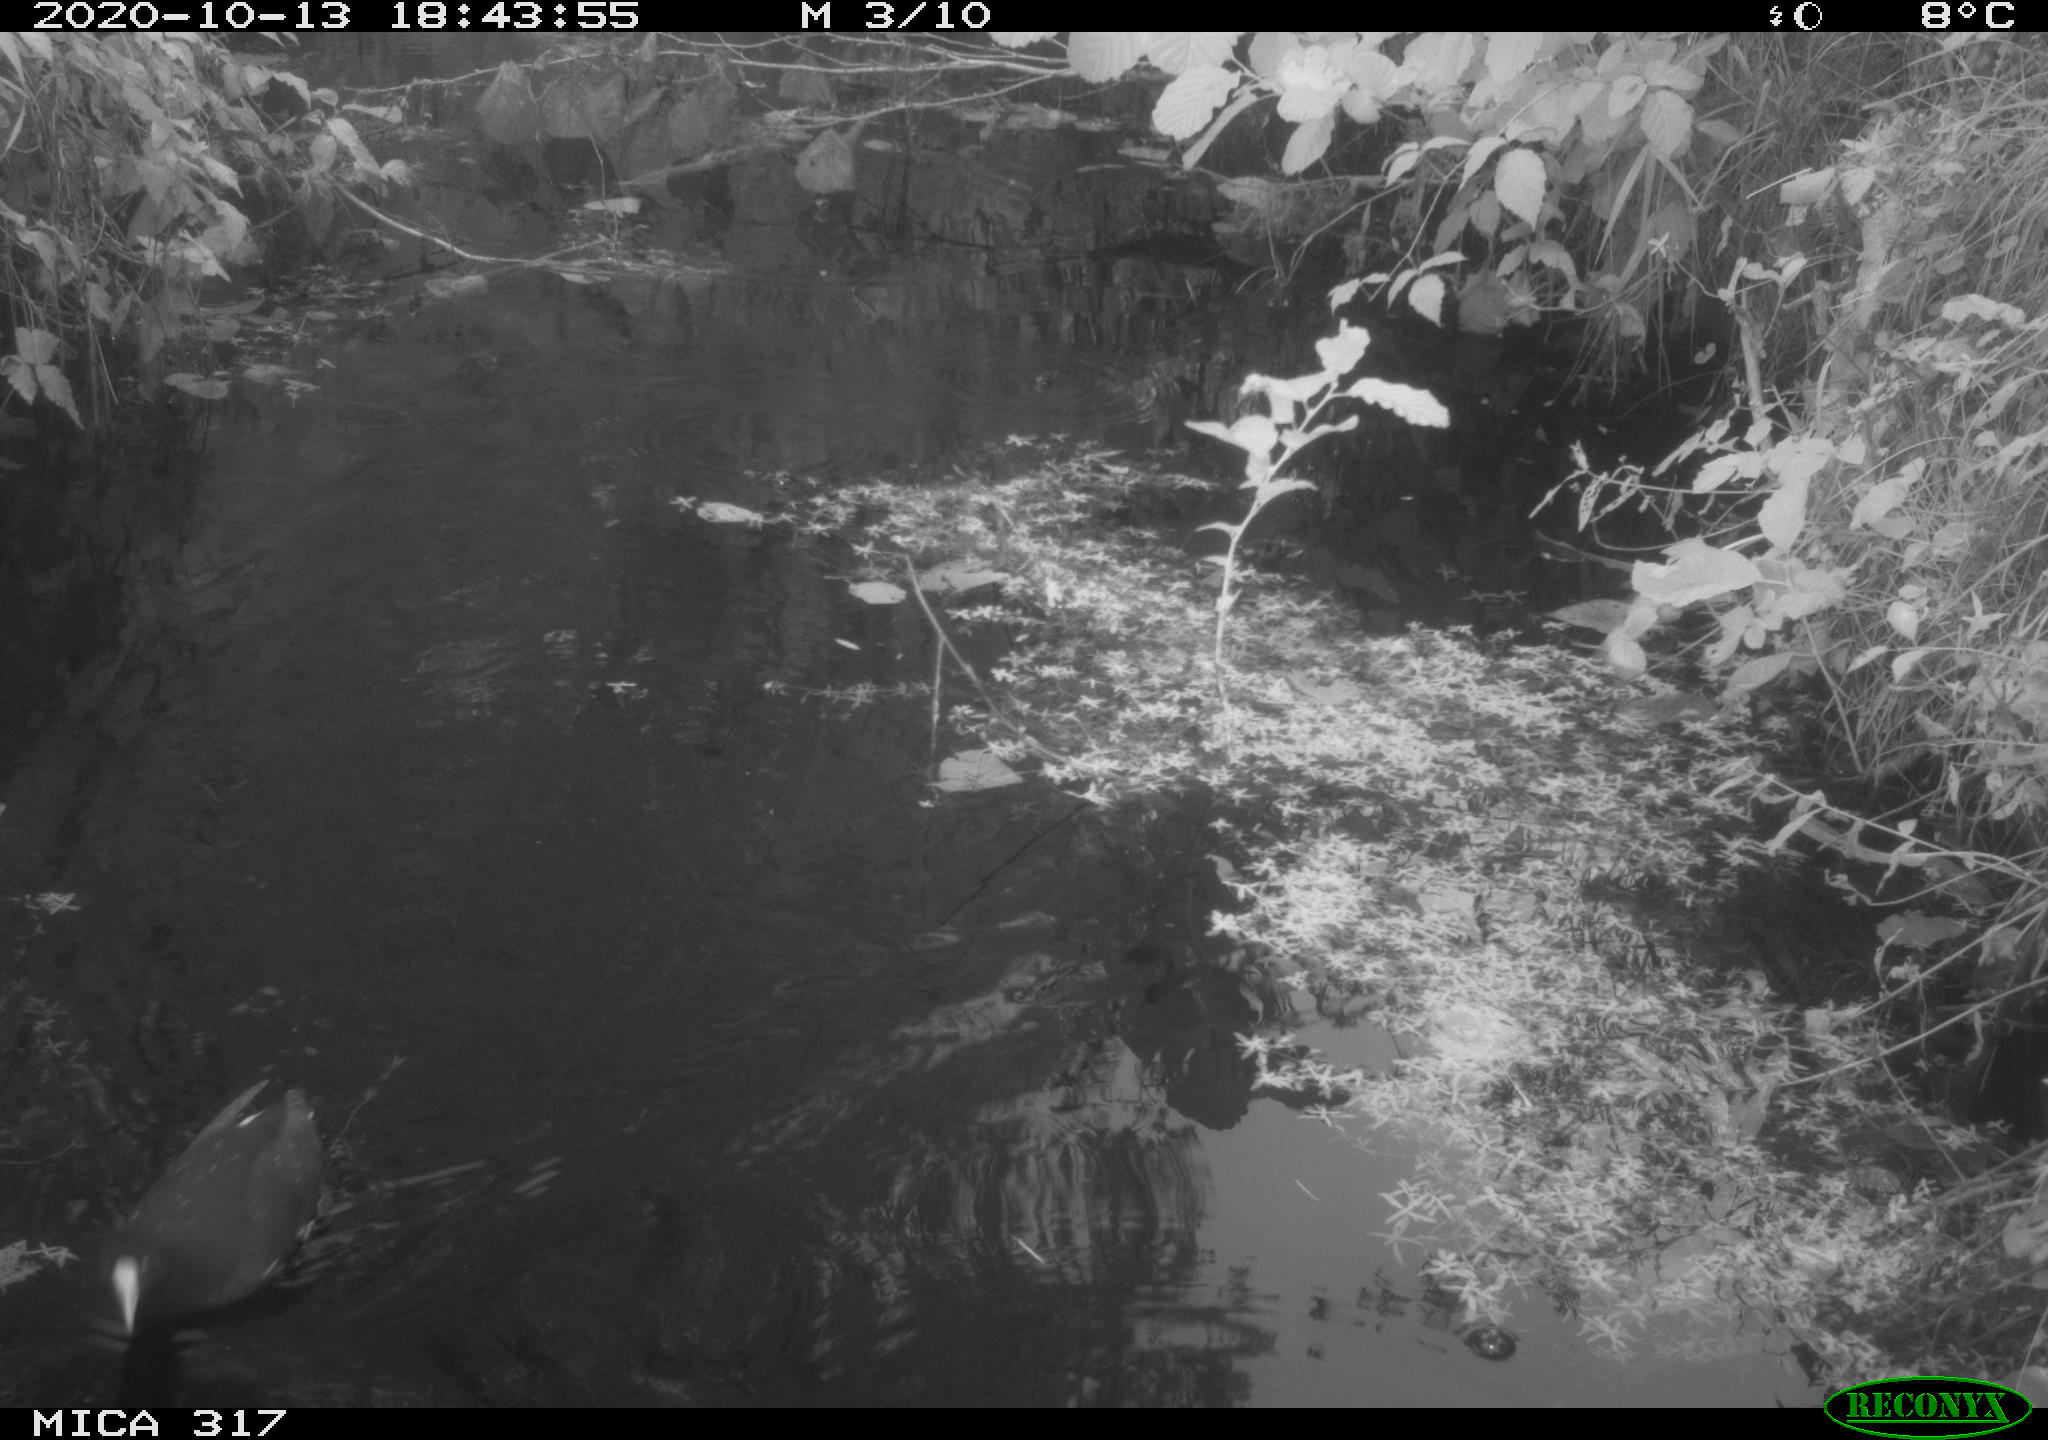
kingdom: Animalia
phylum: Chordata
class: Aves
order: Gruiformes
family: Rallidae
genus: Gallinula
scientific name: Gallinula chloropus
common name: Common moorhen
